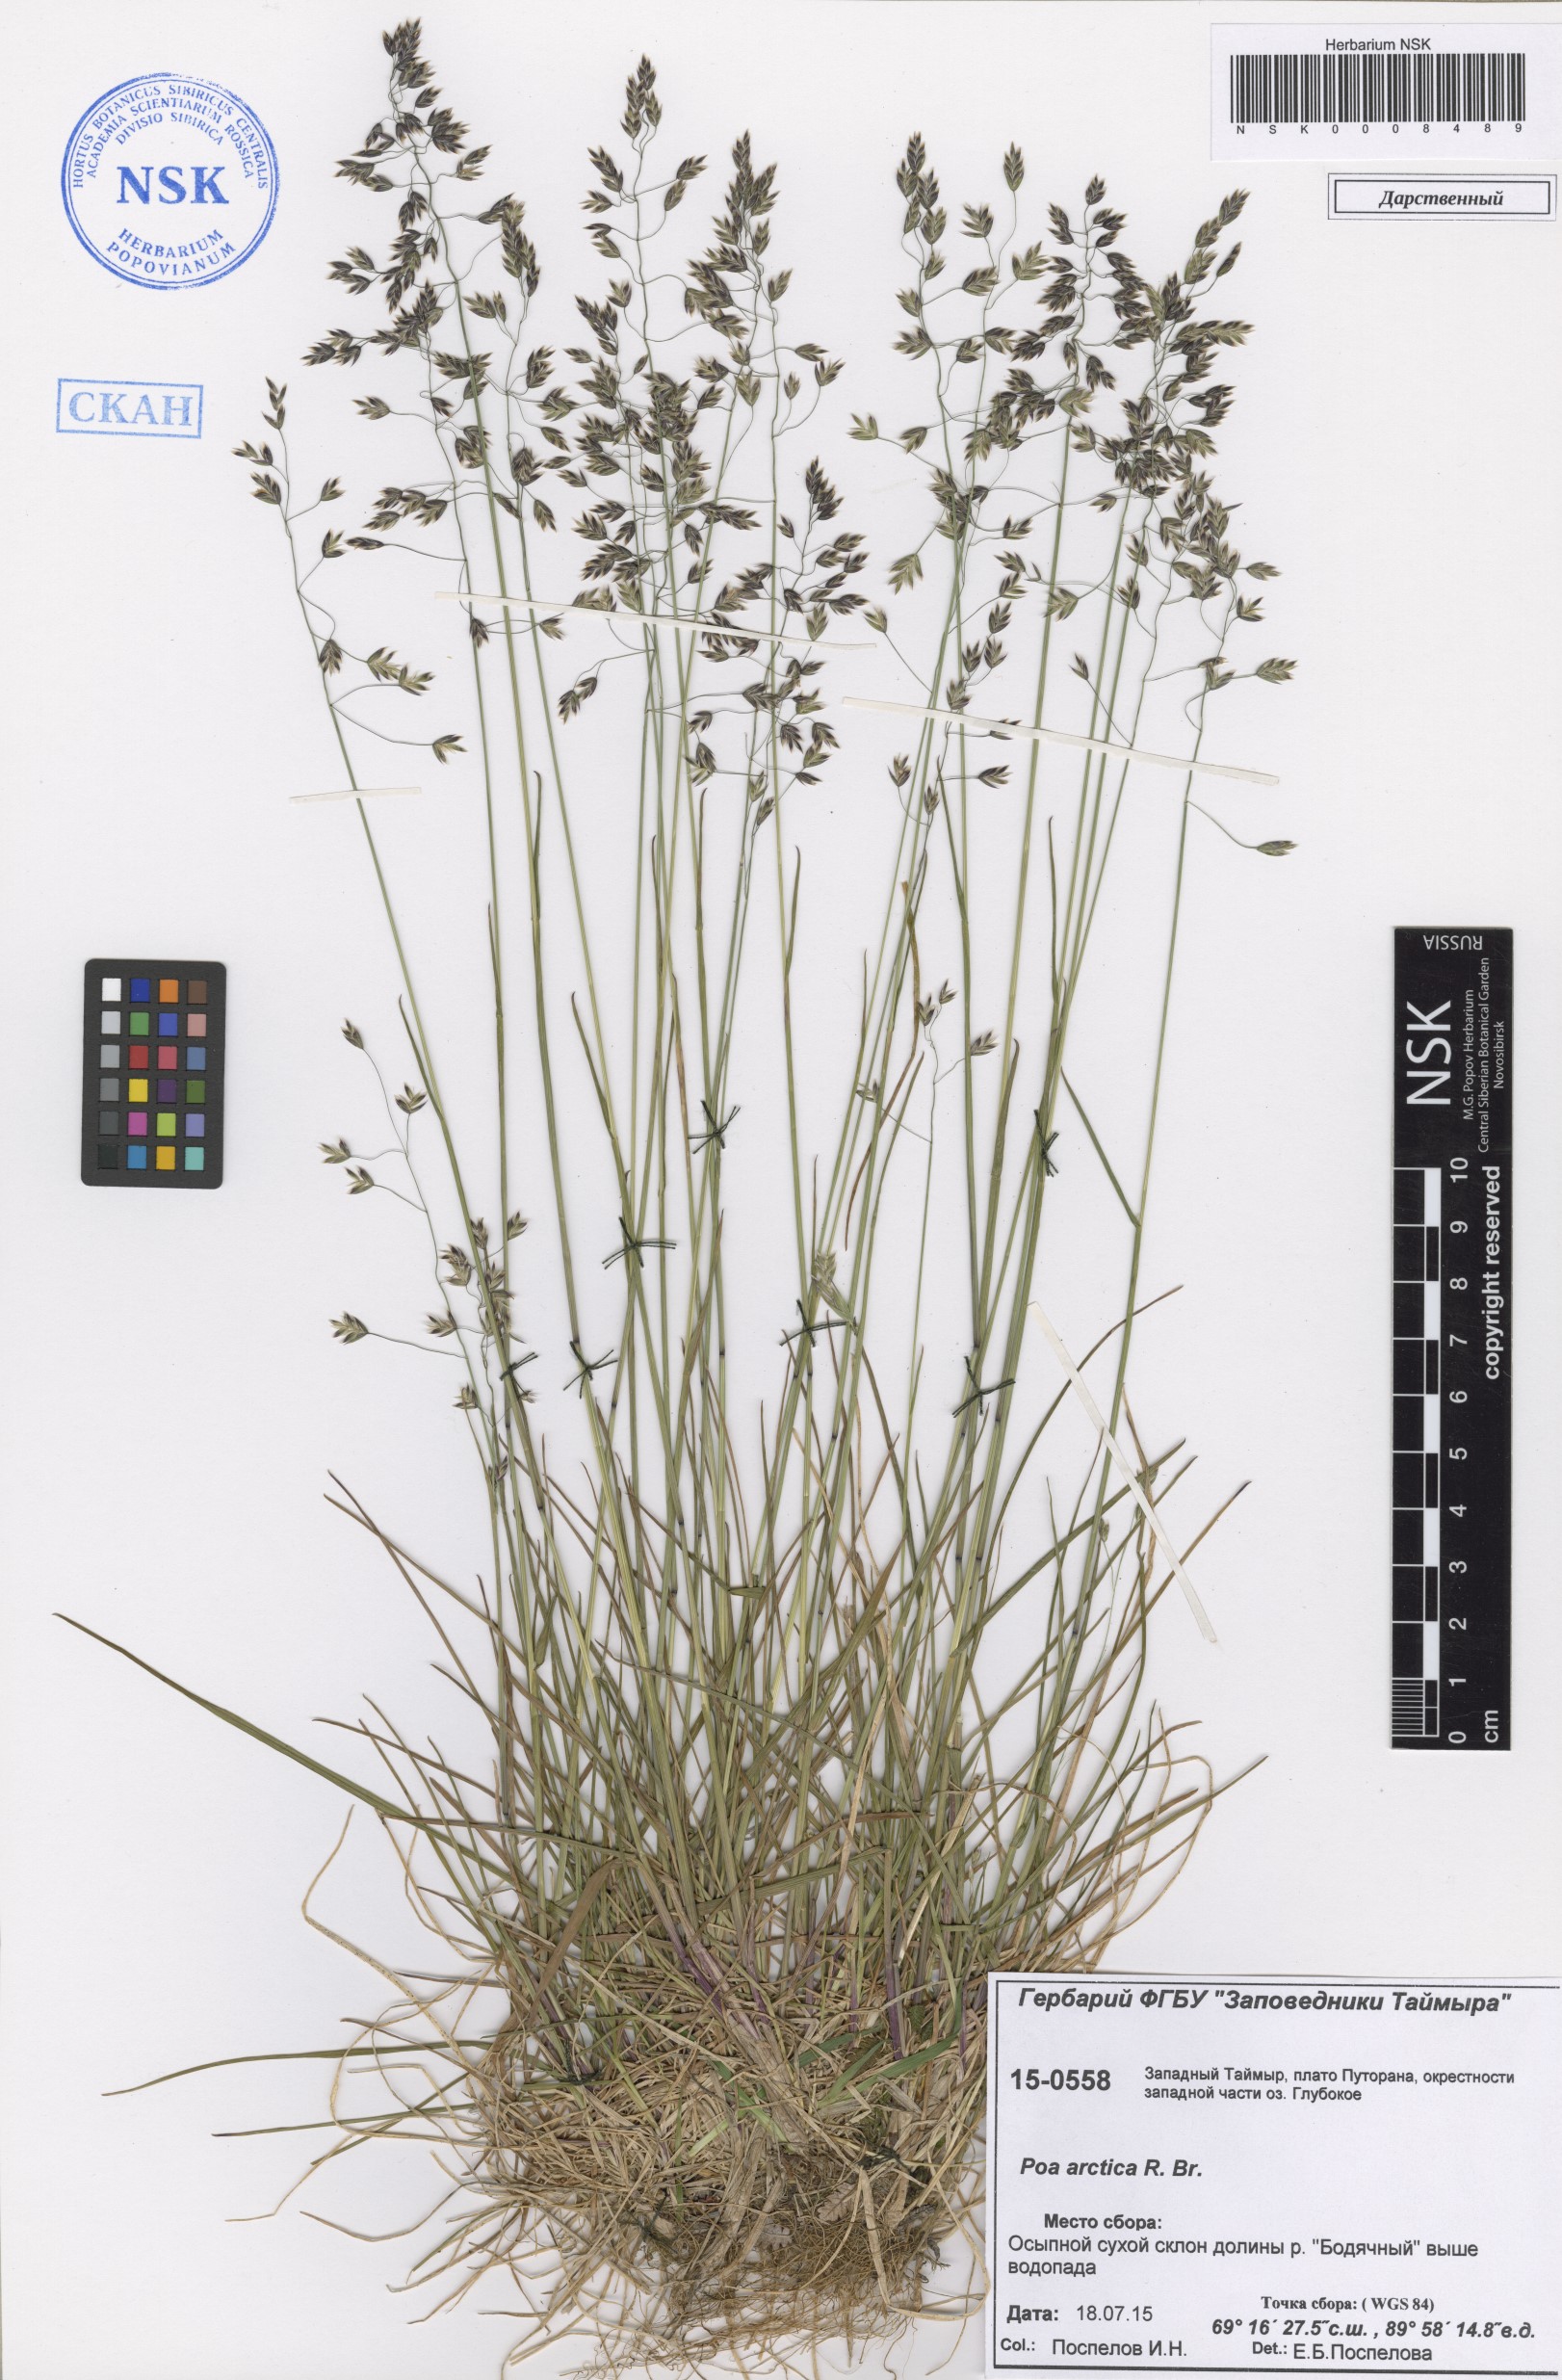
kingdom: Plantae
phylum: Tracheophyta
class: Liliopsida
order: Poales
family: Poaceae
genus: Poa
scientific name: Poa arctica
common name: Arctic bluegrass
